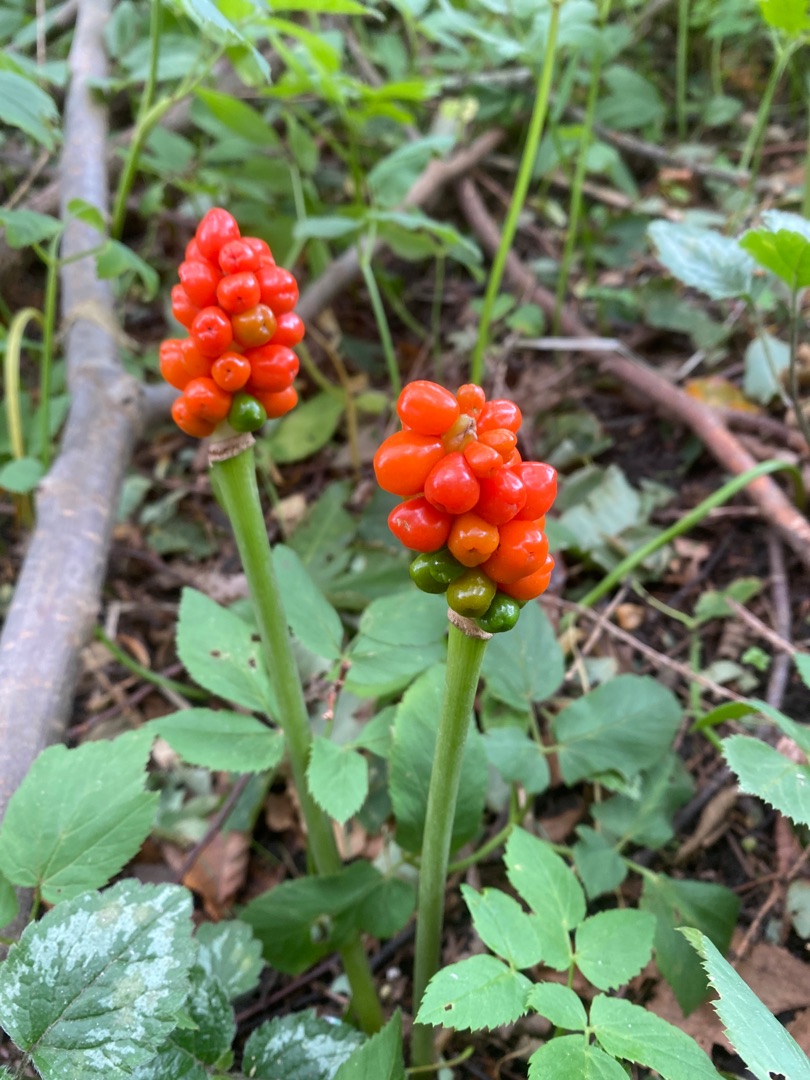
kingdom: Plantae
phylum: Tracheophyta
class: Liliopsida
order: Alismatales
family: Araceae
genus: Arum
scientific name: Arum
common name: Arumslægten
